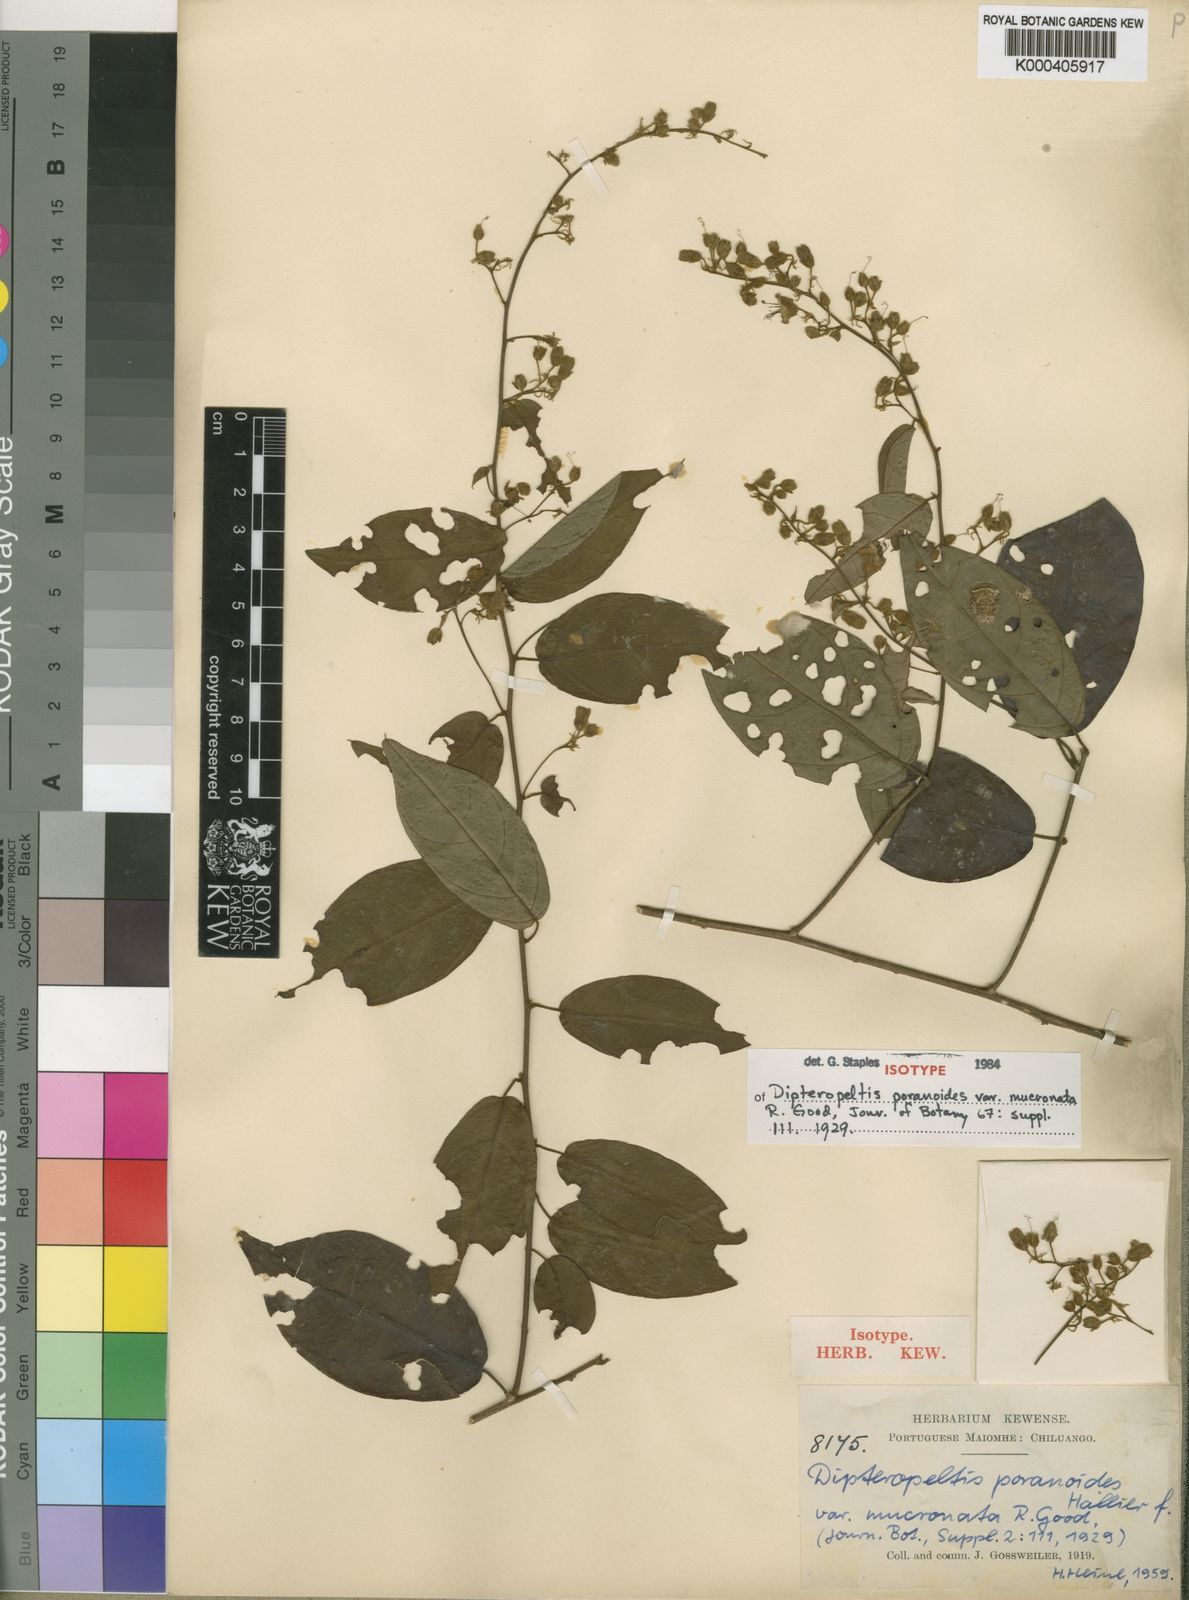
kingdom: Plantae
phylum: Tracheophyta
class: Magnoliopsida
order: Solanales
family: Convolvulaceae
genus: Dipteropeltis
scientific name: Dipteropeltis poranoides
